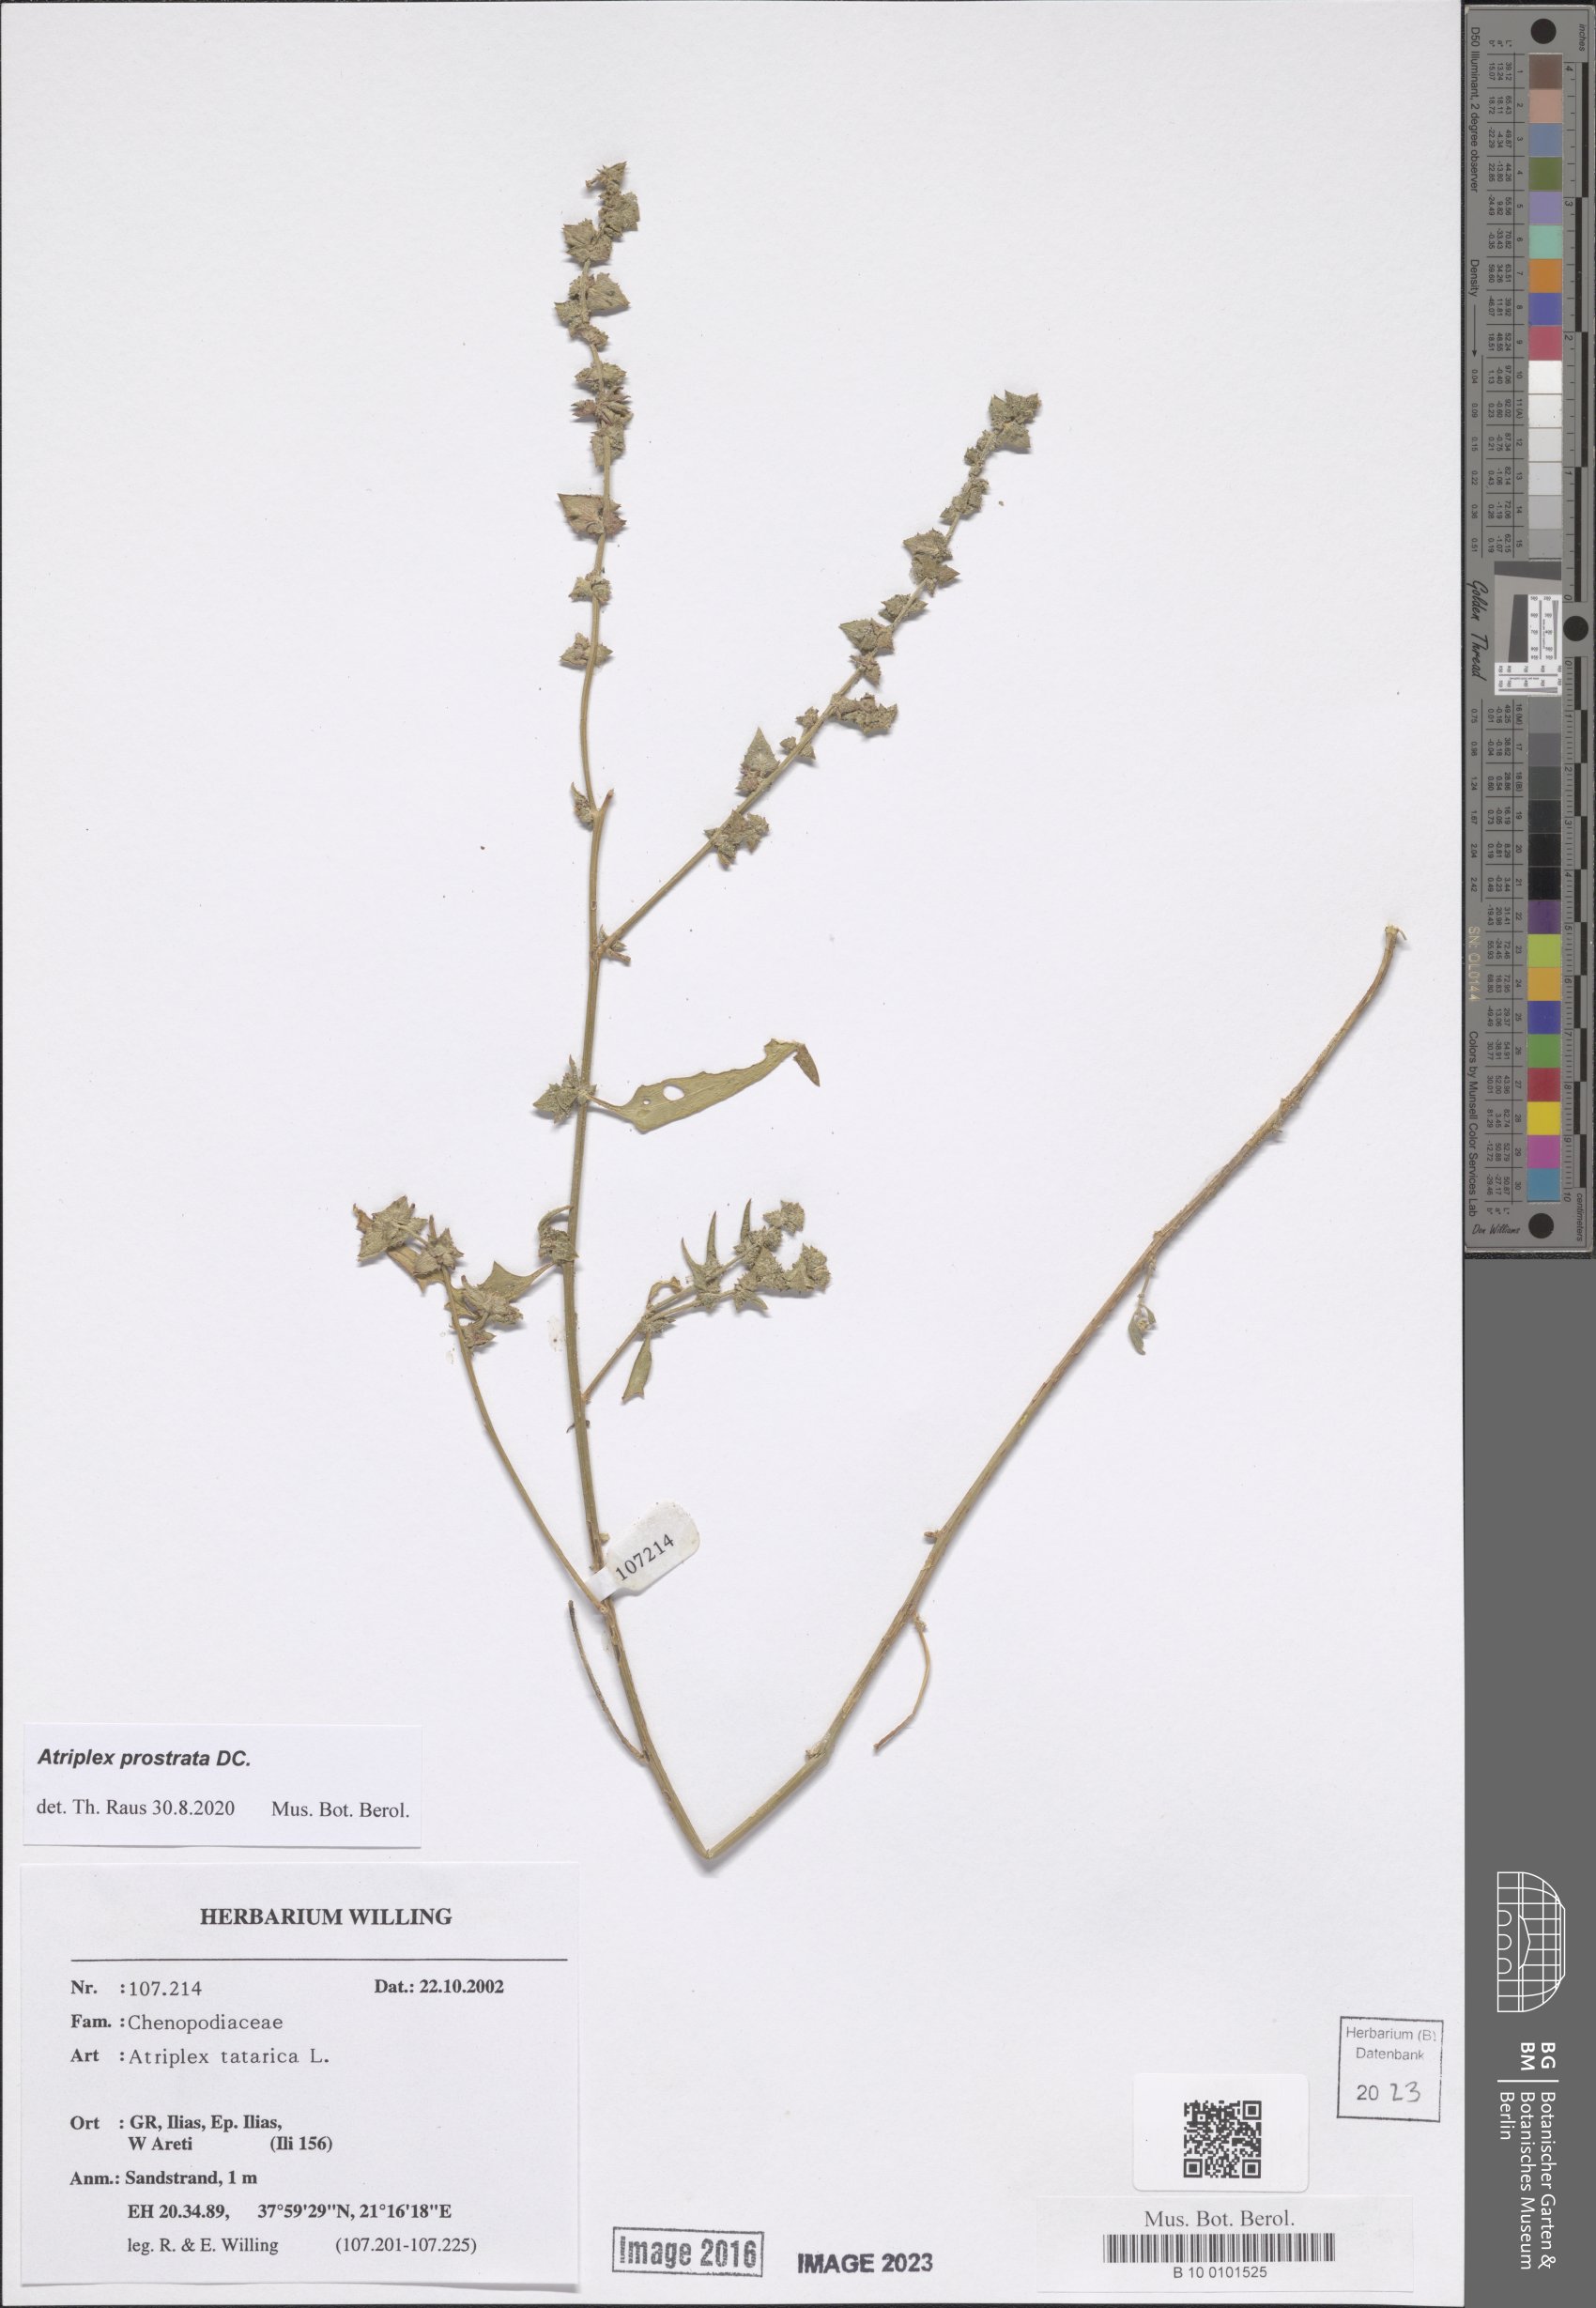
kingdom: Plantae
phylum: Tracheophyta
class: Magnoliopsida
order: Caryophyllales
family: Amaranthaceae
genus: Atriplex
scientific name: Atriplex prostrata
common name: Spear-leaved orache
